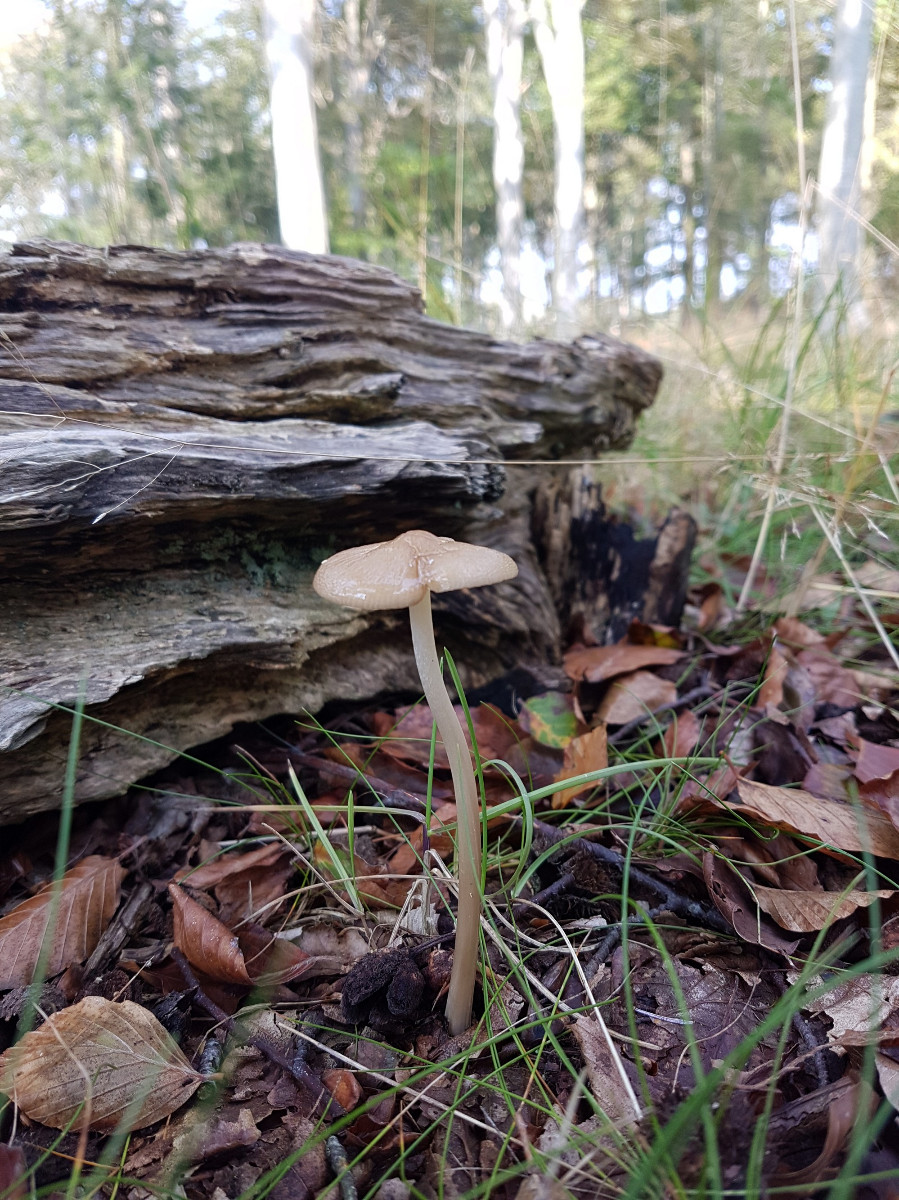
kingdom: Fungi
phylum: Basidiomycota
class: Agaricomycetes
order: Agaricales
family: Physalacriaceae
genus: Hymenopellis
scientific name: Hymenopellis radicata
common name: almindelig pælerodshat
